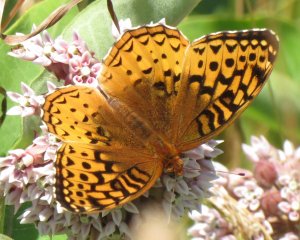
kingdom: Animalia
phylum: Arthropoda
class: Insecta
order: Lepidoptera
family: Nymphalidae
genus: Speyeria
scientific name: Speyeria cybele
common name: Great Spangled Fritillary
